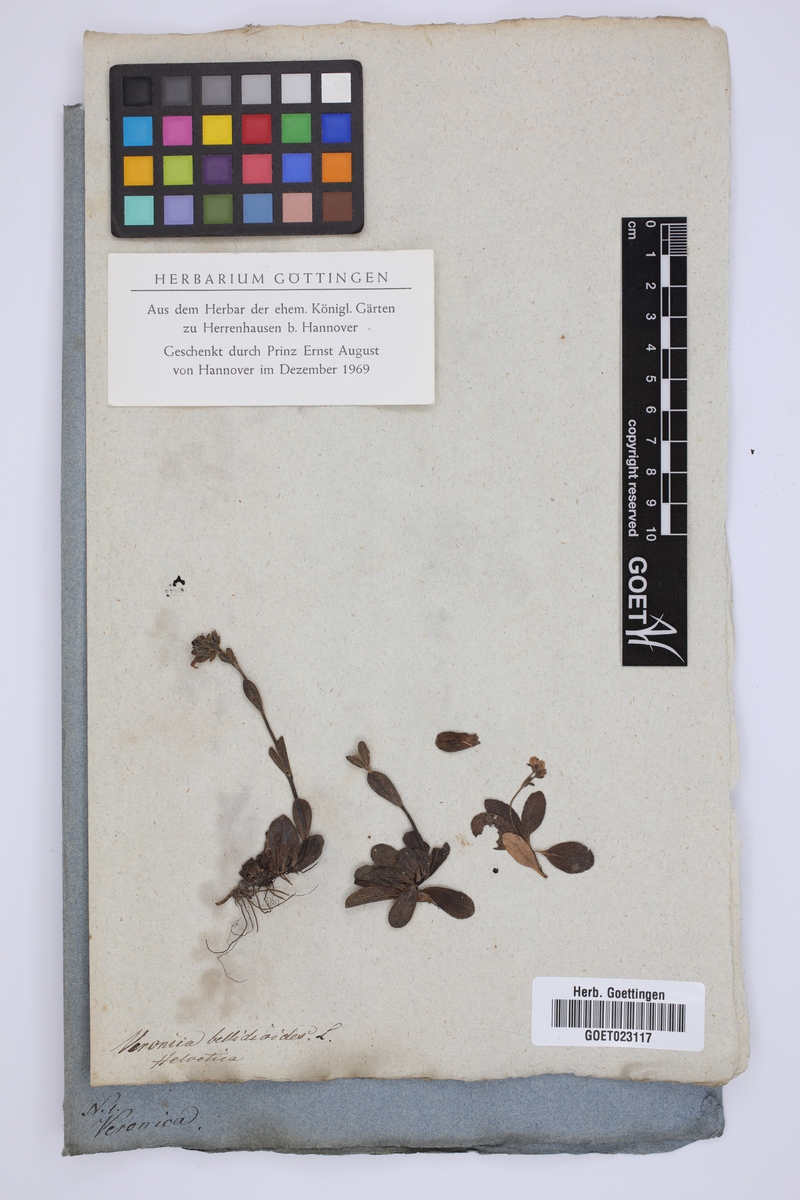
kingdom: Plantae
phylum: Tracheophyta
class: Magnoliopsida
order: Lamiales
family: Plantaginaceae
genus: Veronica
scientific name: Veronica bellidioides
